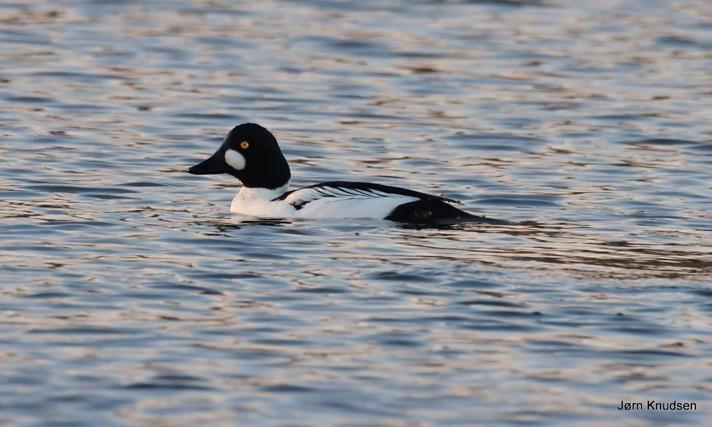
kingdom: Animalia
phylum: Chordata
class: Aves
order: Anseriformes
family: Anatidae
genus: Bucephala
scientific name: Bucephala clangula
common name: Hvinand
